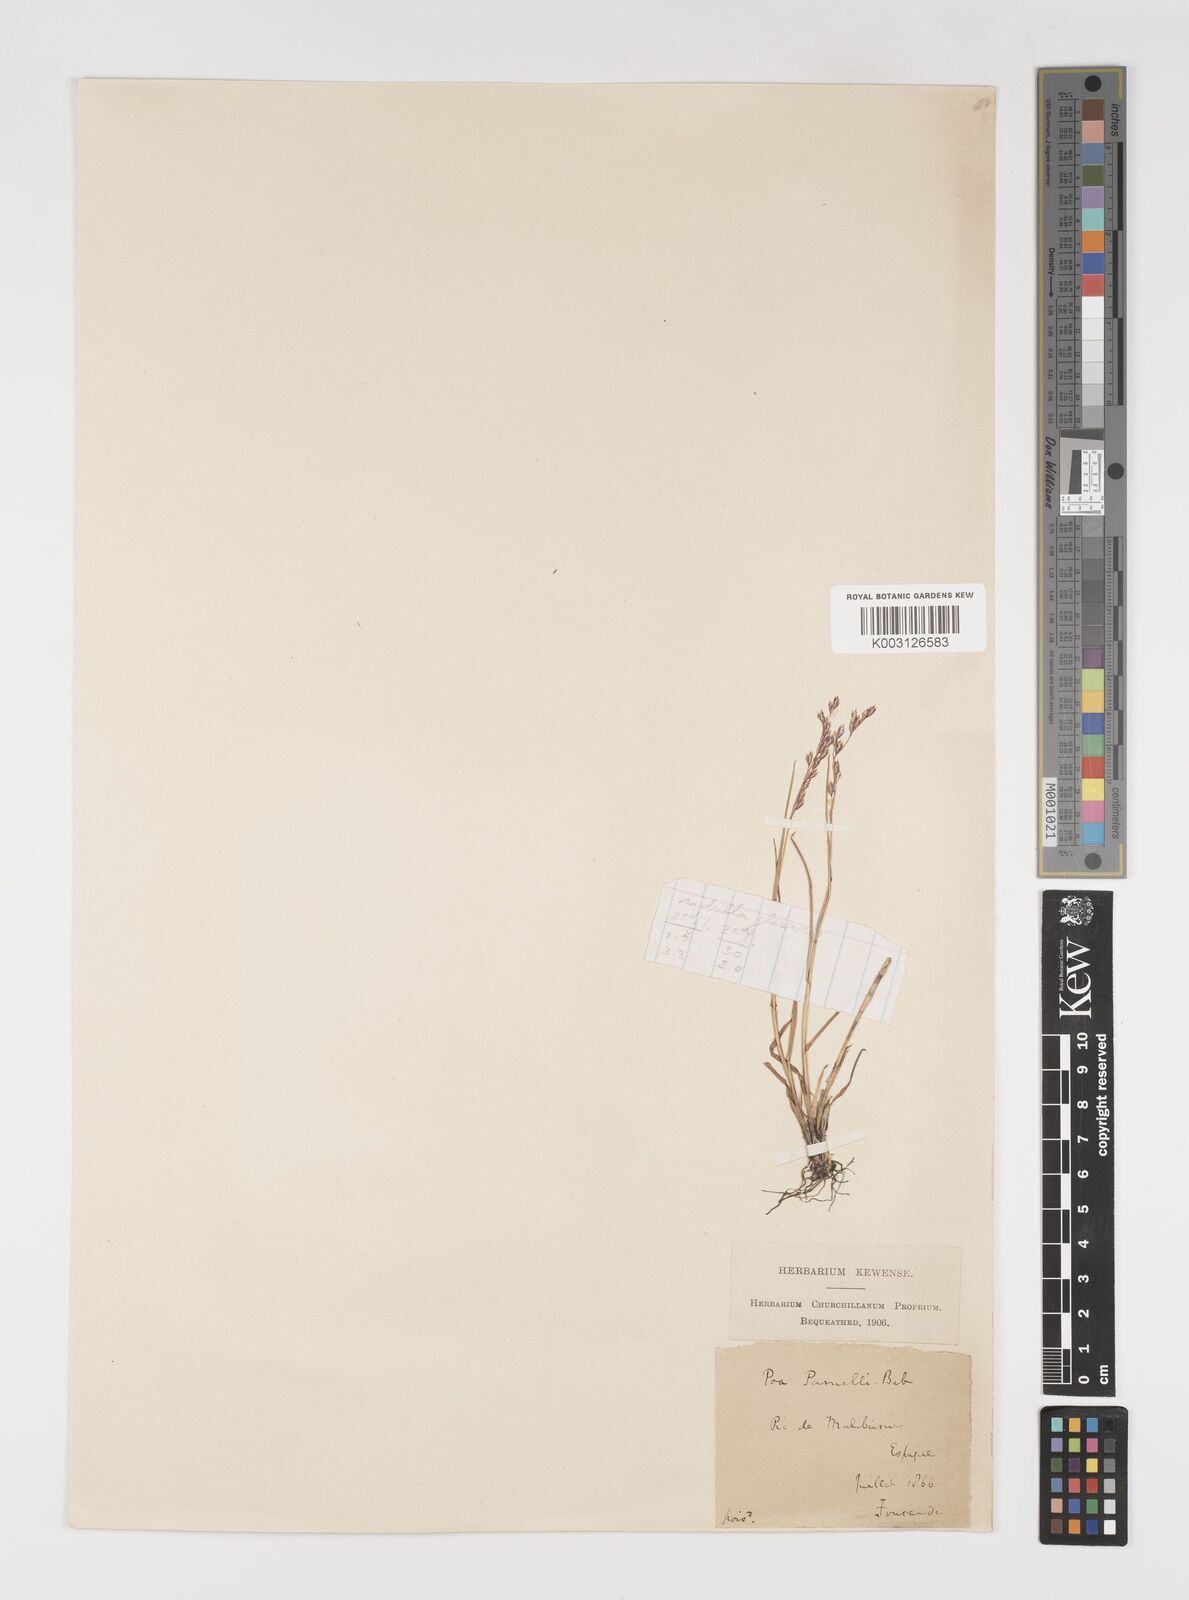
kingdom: Plantae
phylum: Tracheophyta
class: Liliopsida
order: Poales
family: Poaceae
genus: Poa
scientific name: Poa nemoralis
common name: Wood bluegrass
